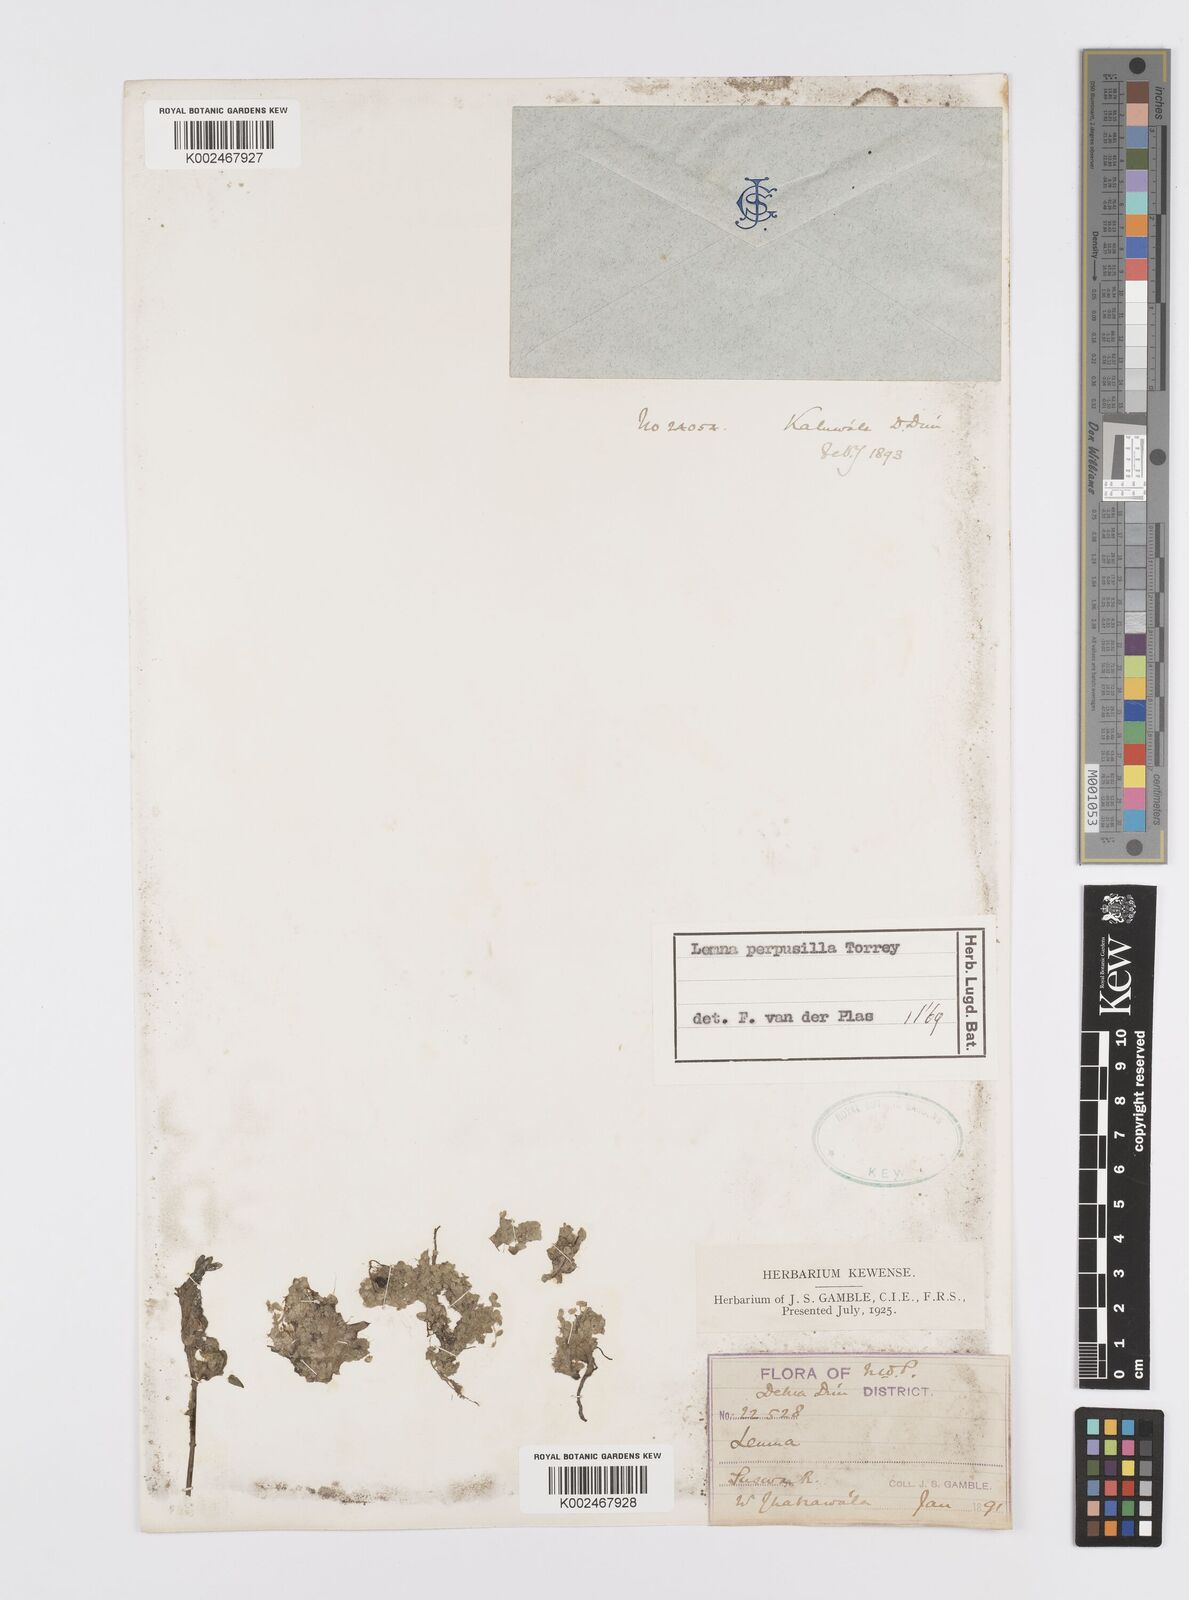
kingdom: Plantae
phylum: Tracheophyta
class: Liliopsida
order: Alismatales
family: Araceae
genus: Lemna
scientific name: Lemna perpusilla
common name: Duckweed
